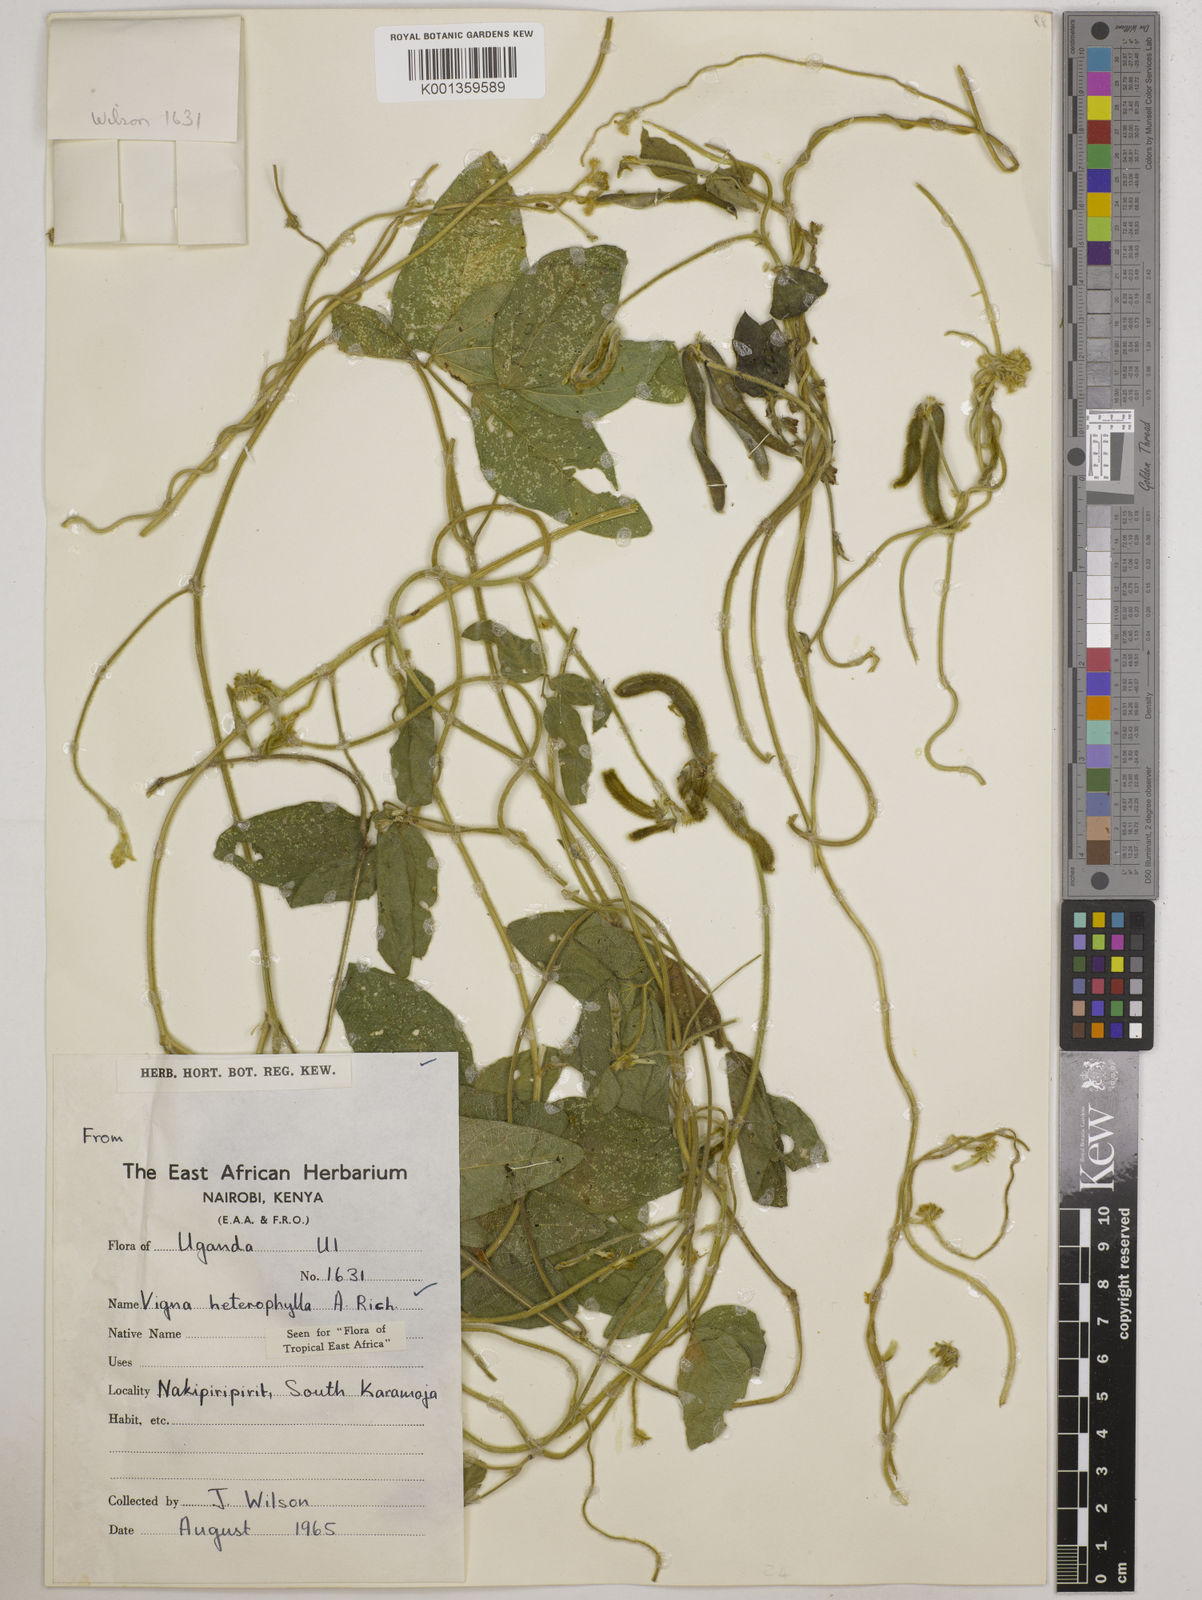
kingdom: Plantae
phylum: Tracheophyta
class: Magnoliopsida
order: Fabales
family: Fabaceae
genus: Vigna
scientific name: Vigna heterophylla
